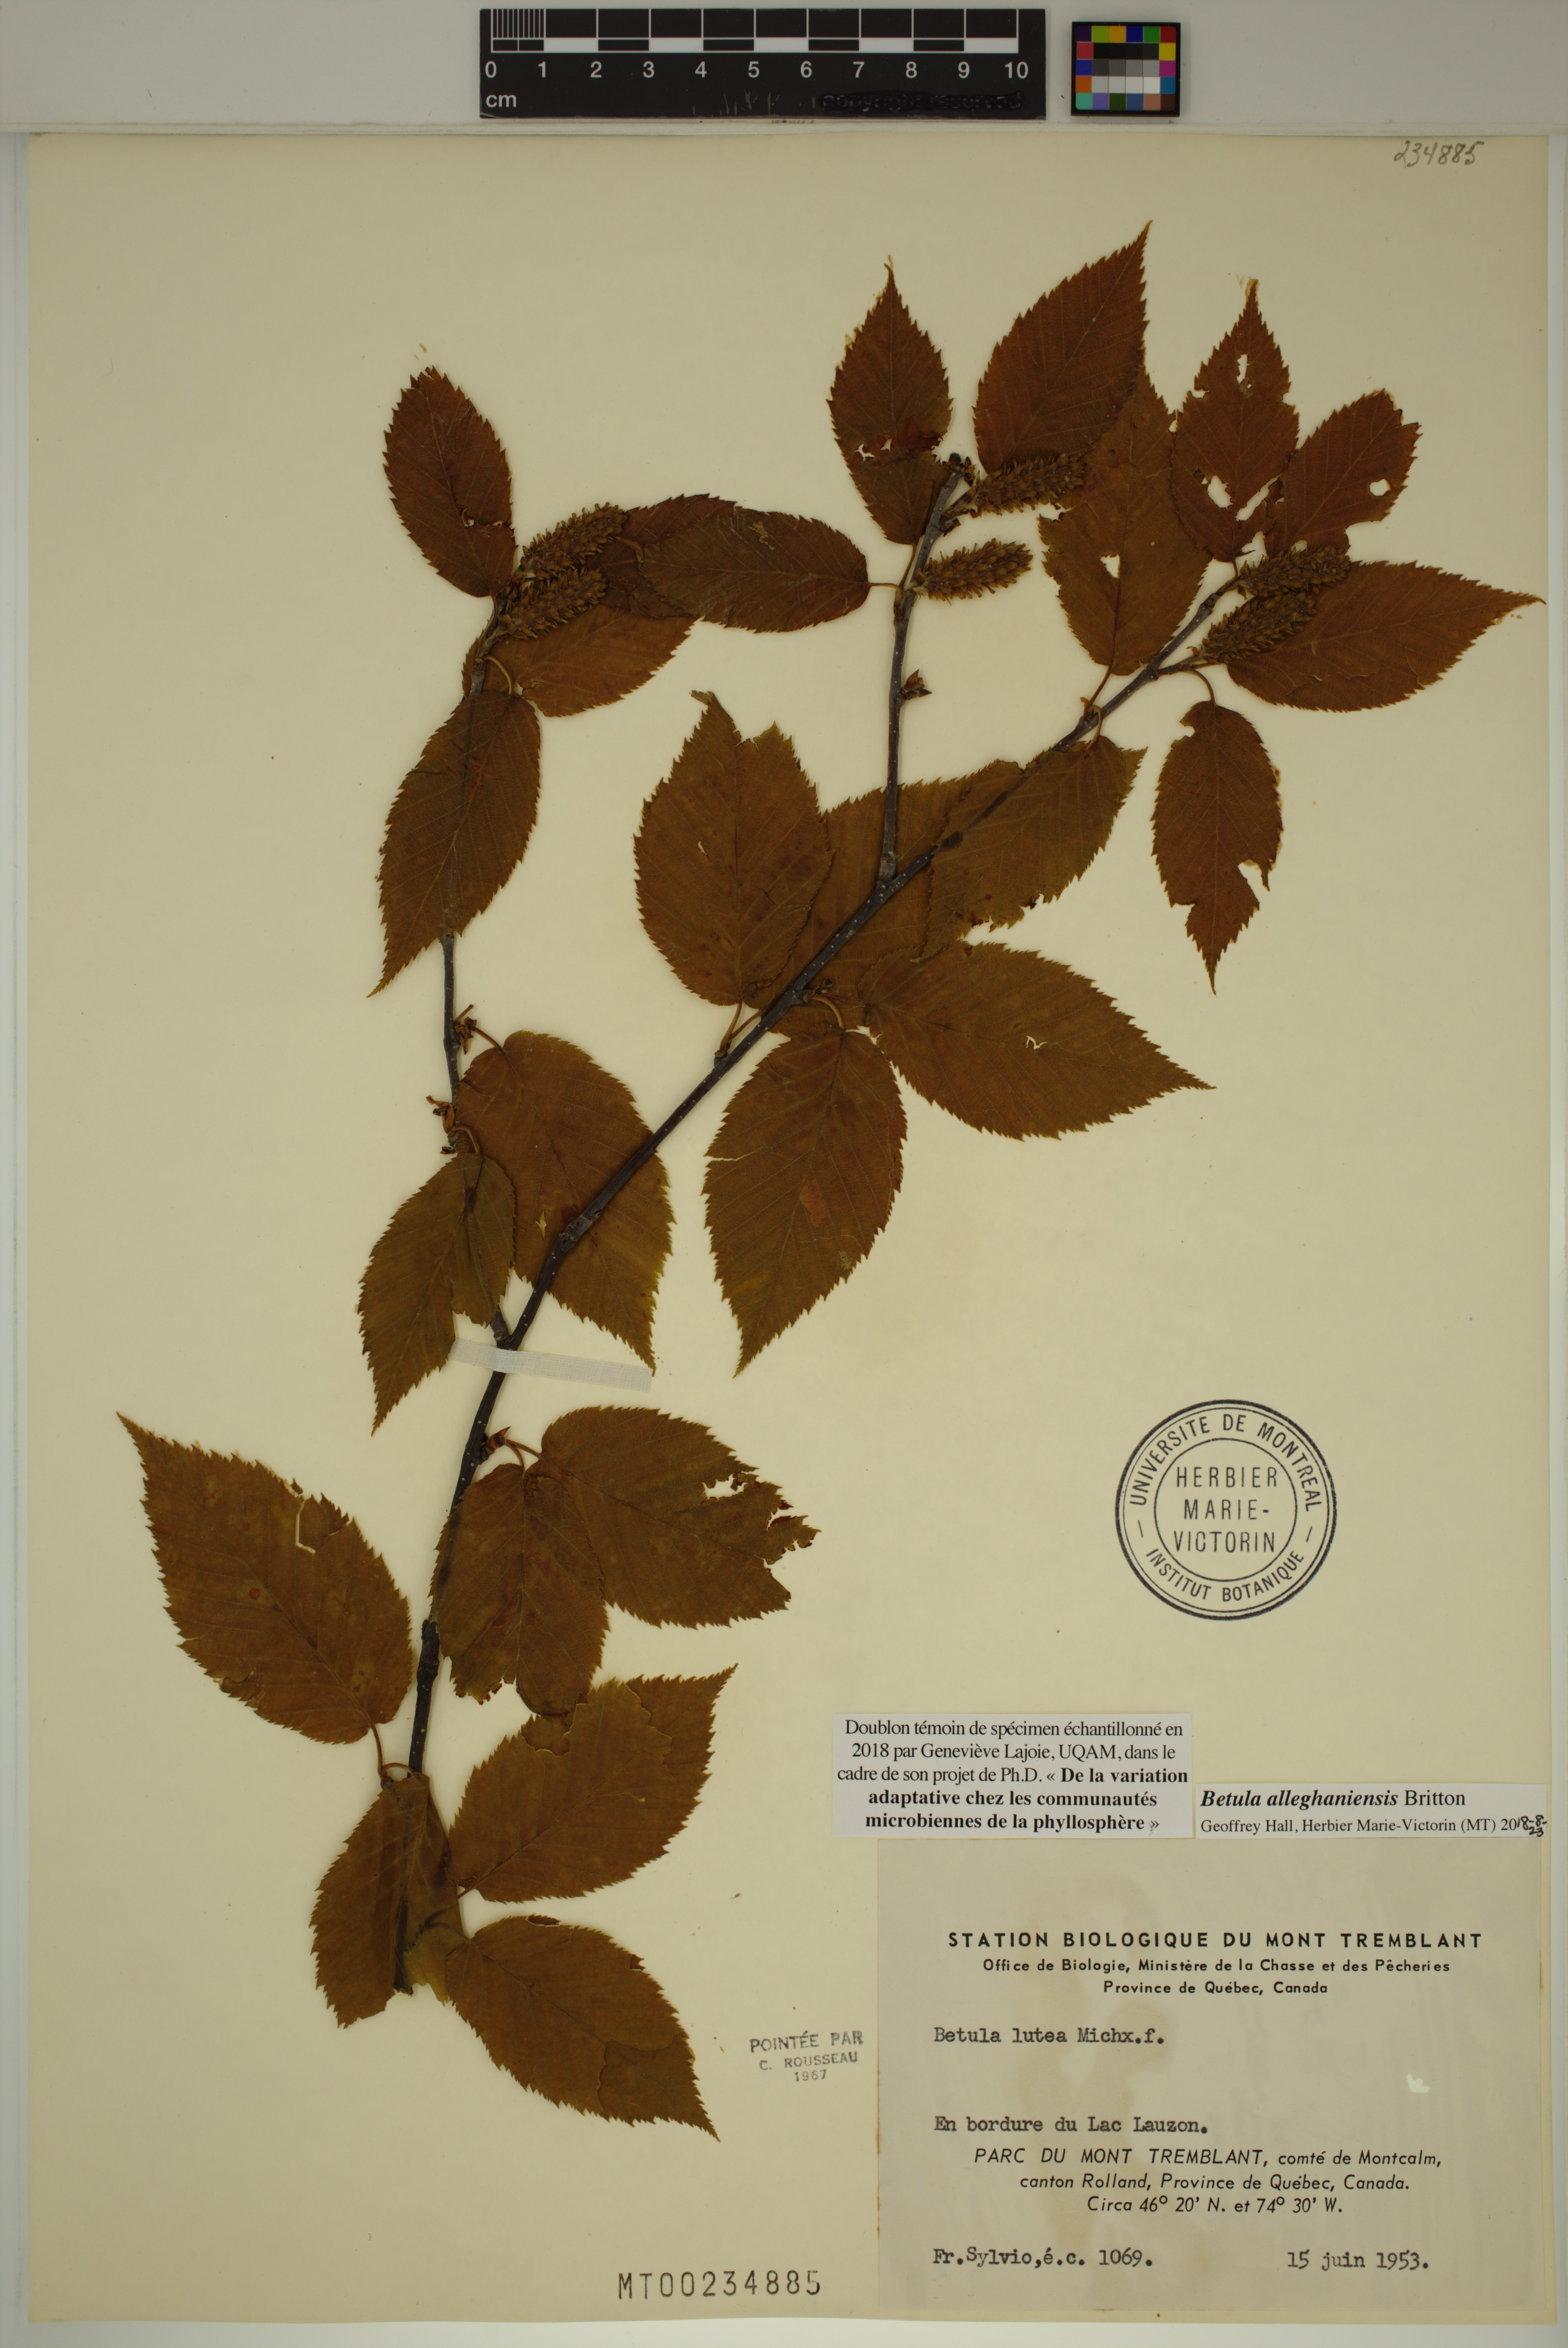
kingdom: Plantae
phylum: Tracheophyta
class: Magnoliopsida
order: Fagales
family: Betulaceae
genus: Betula
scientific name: Betula alleghaniensis
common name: Yellow birch
